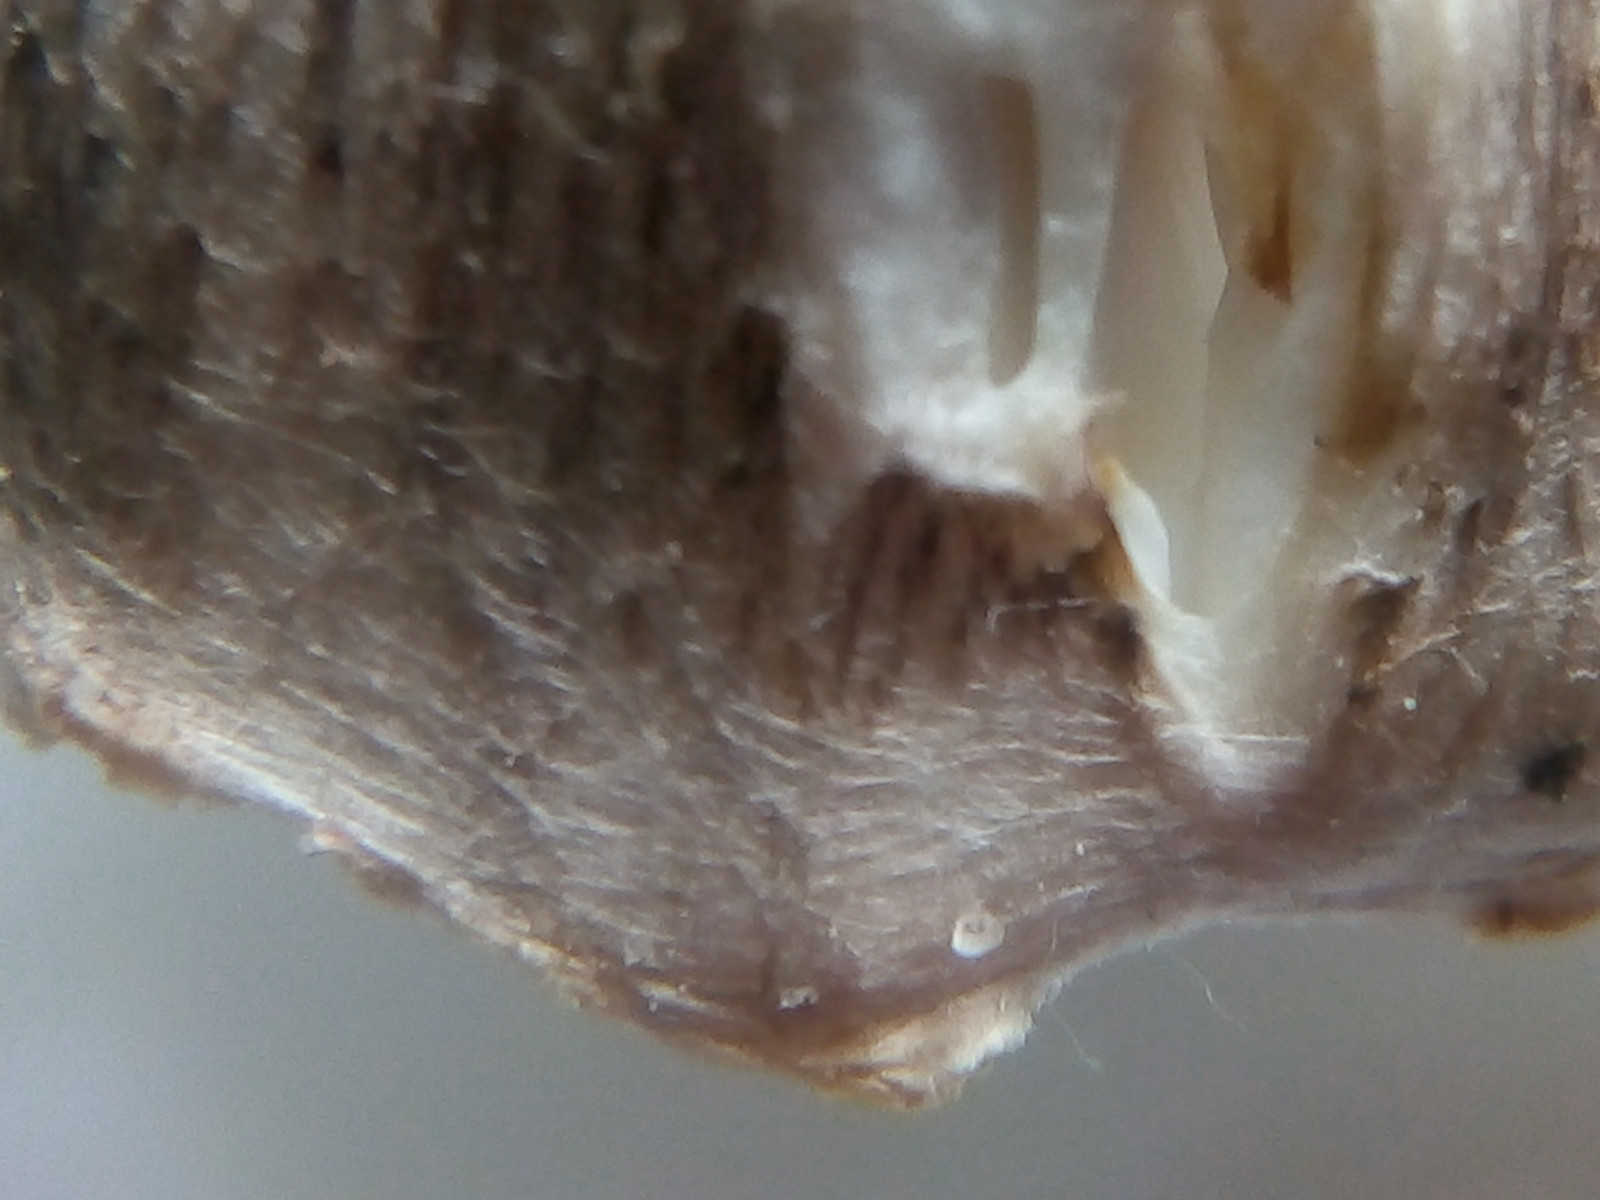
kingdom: Fungi
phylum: Basidiomycota
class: Agaricomycetes
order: Agaricales
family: Tricholomataceae
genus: Tricholoma
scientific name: Tricholoma argyraceum
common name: slør-ridderhat
